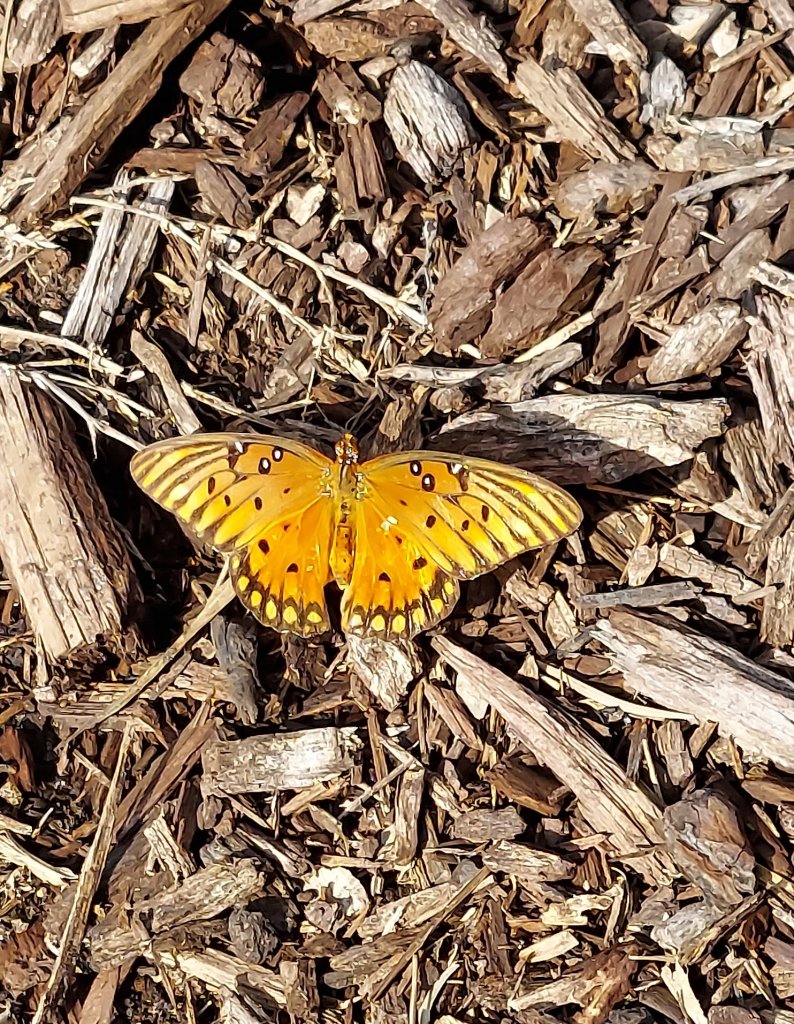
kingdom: Animalia
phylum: Arthropoda
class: Insecta
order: Lepidoptera
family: Nymphalidae
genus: Dione
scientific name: Dione vanillae
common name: Gulf Fritillary
